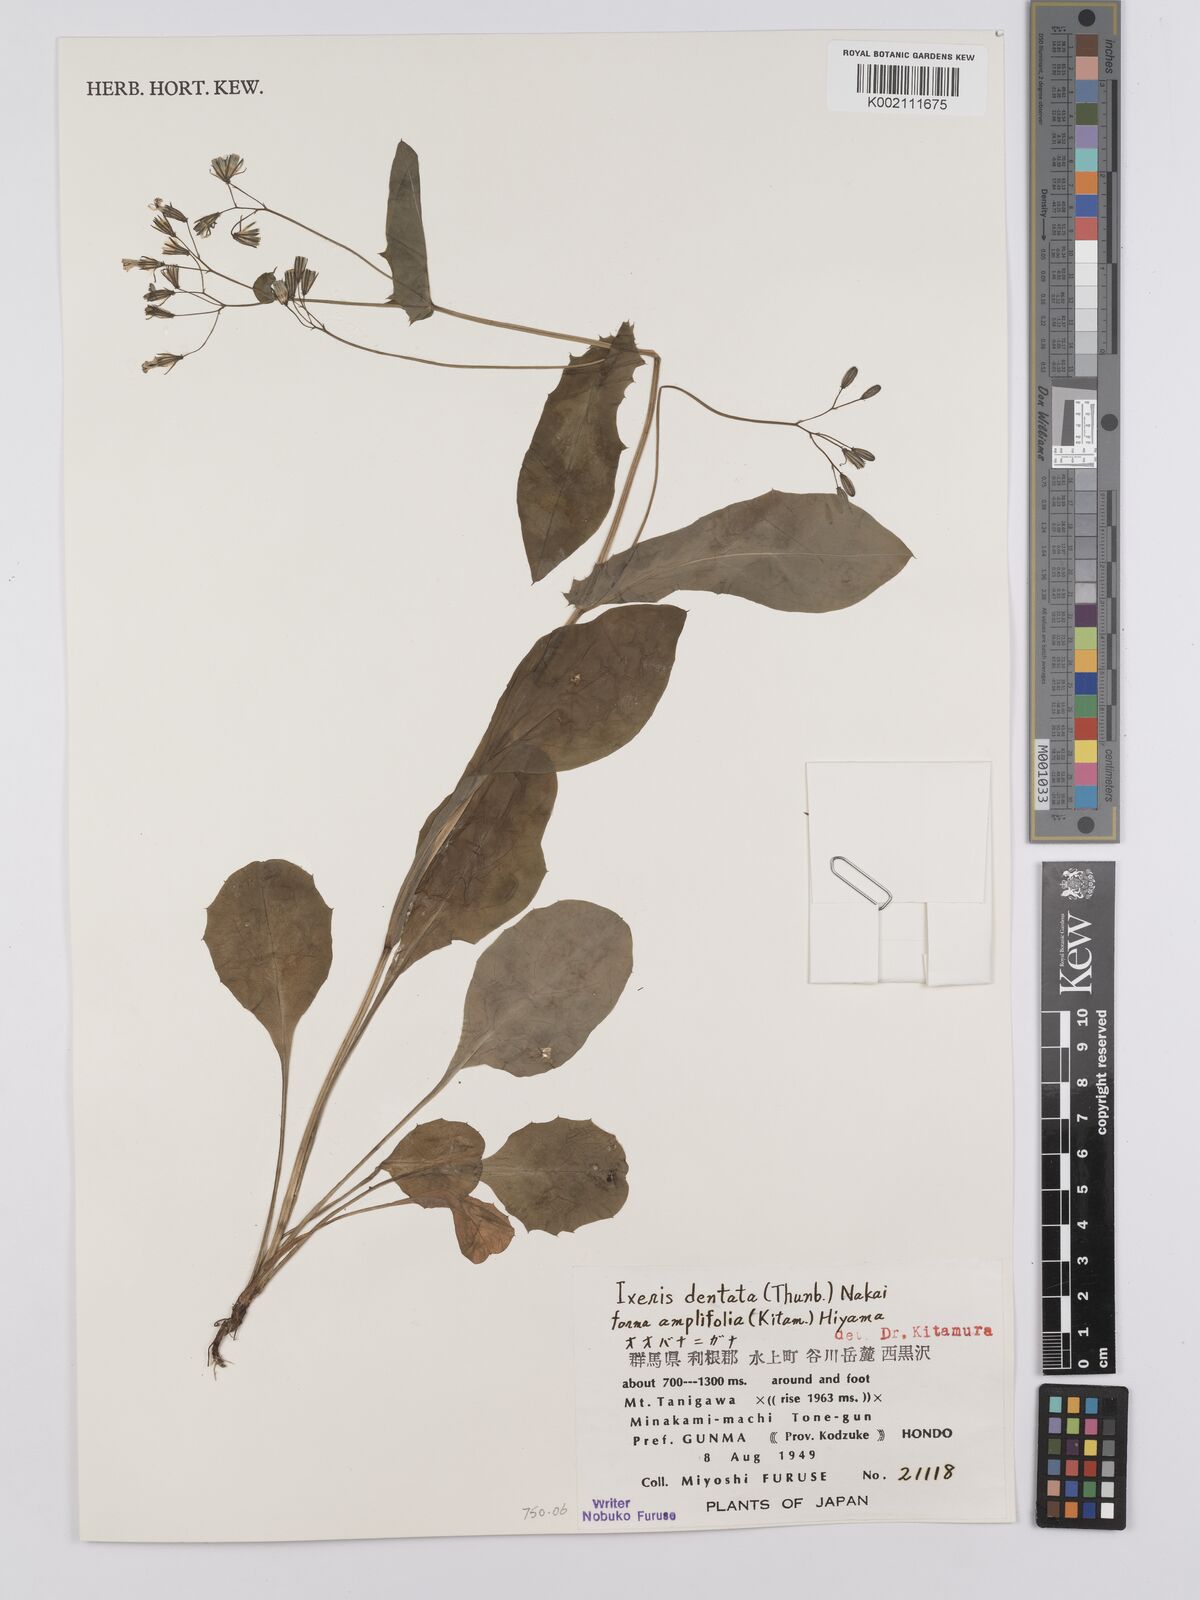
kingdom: Plantae
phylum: Tracheophyta
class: Magnoliopsida
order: Asterales
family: Asteraceae
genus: Ixeridium
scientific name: Ixeridium dentatum
